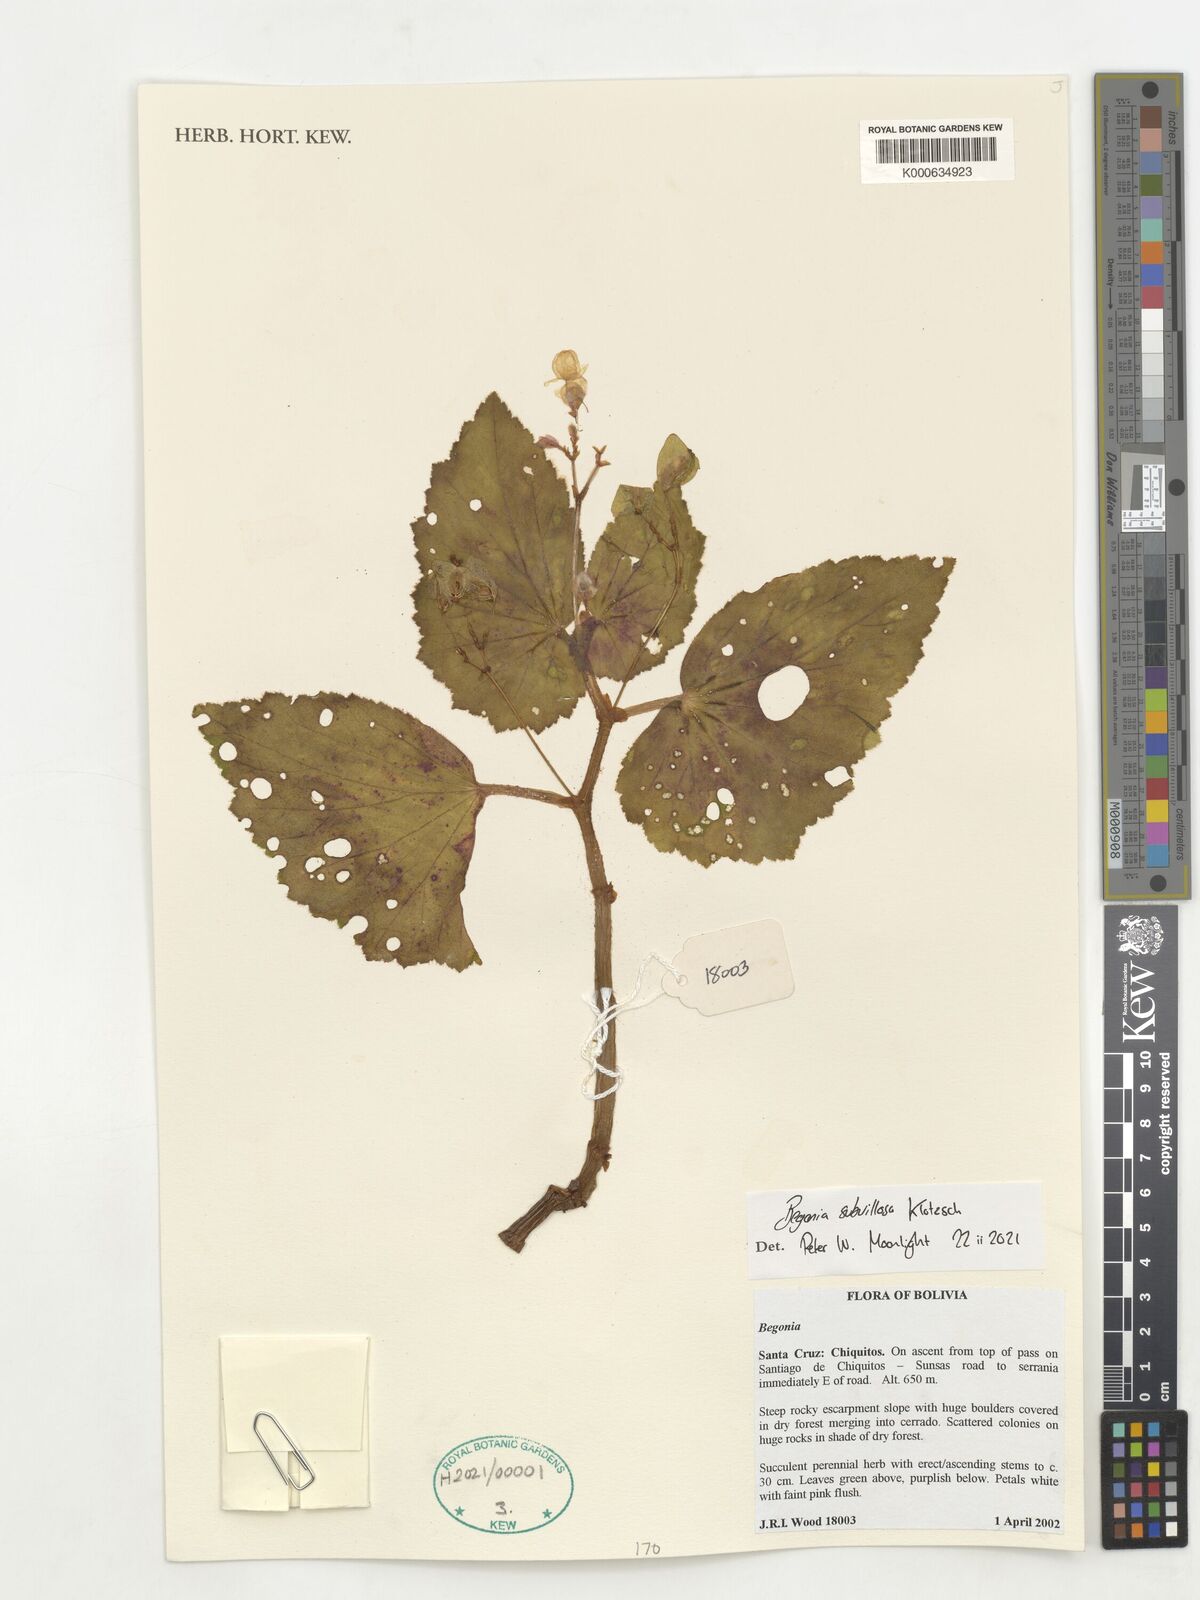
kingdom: Plantae
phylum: Tracheophyta
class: Magnoliopsida
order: Cucurbitales
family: Begoniaceae
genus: Begonia
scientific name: Begonia subvillosa
